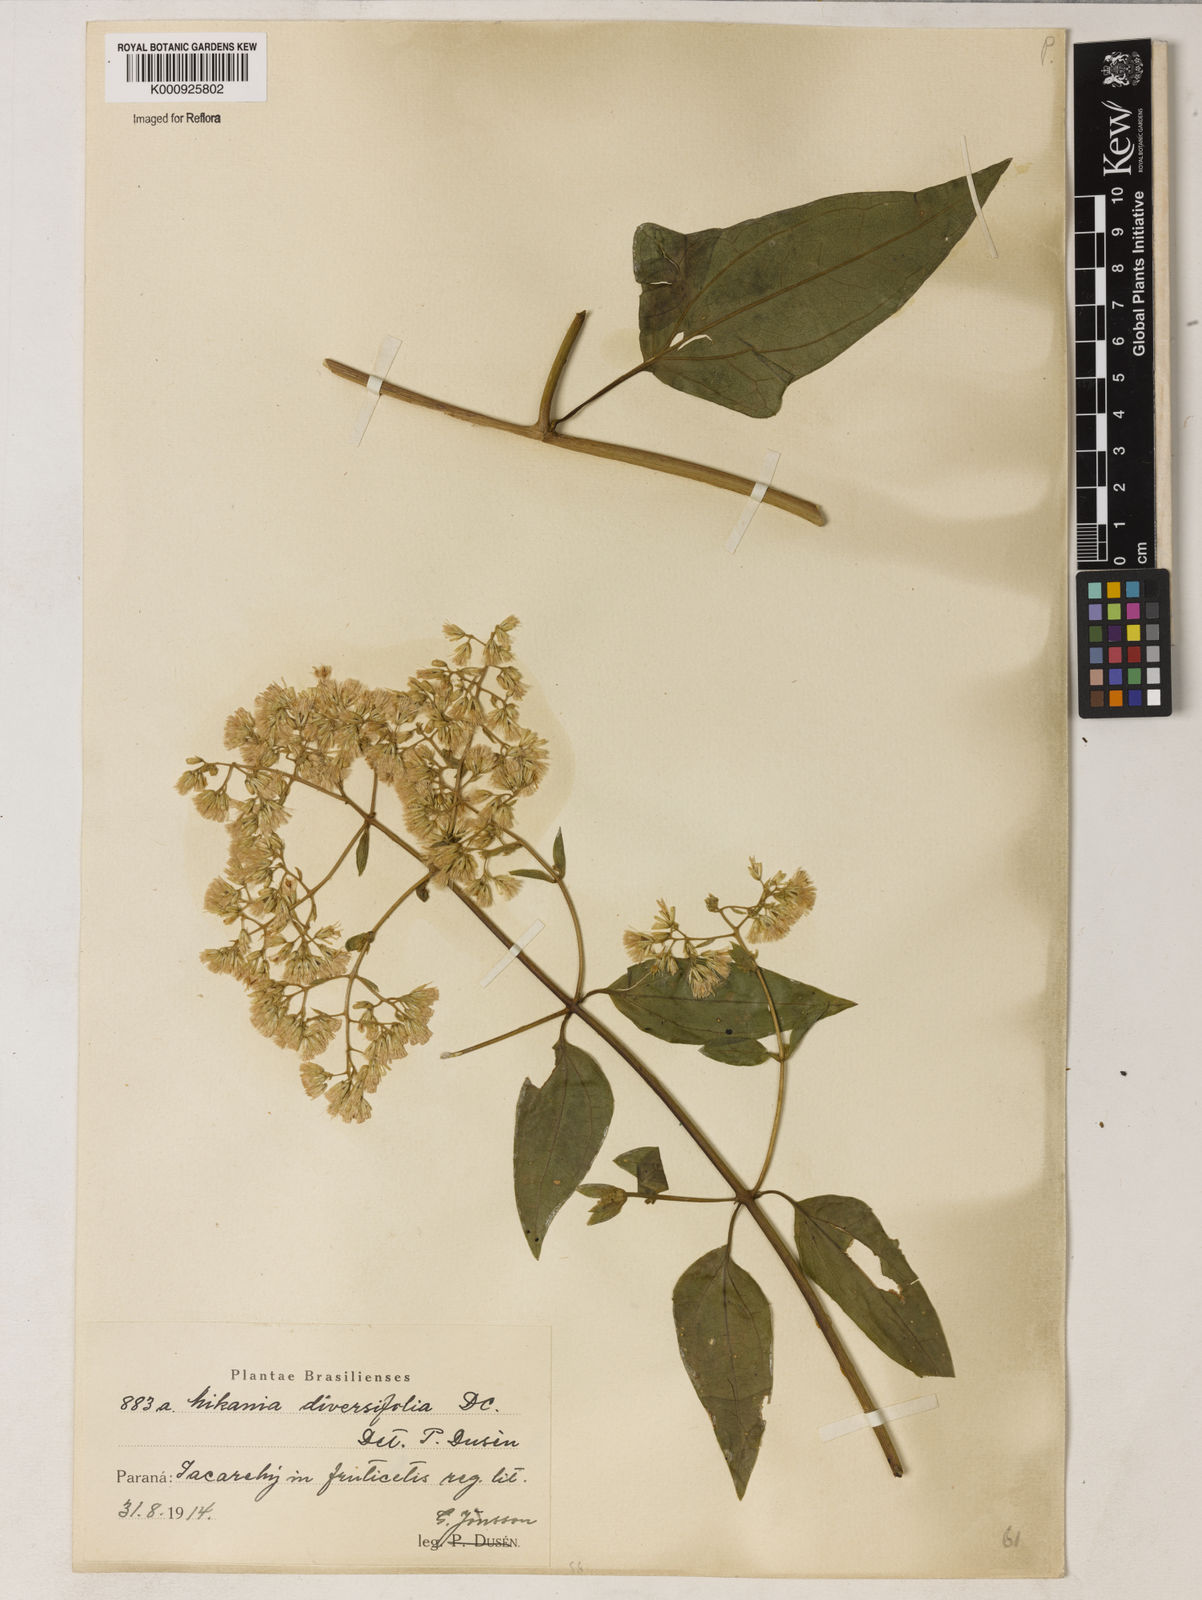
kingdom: Plantae
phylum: Tracheophyta
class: Magnoliopsida
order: Asterales
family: Asteraceae
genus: Mikania
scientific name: Mikania diversifolia
